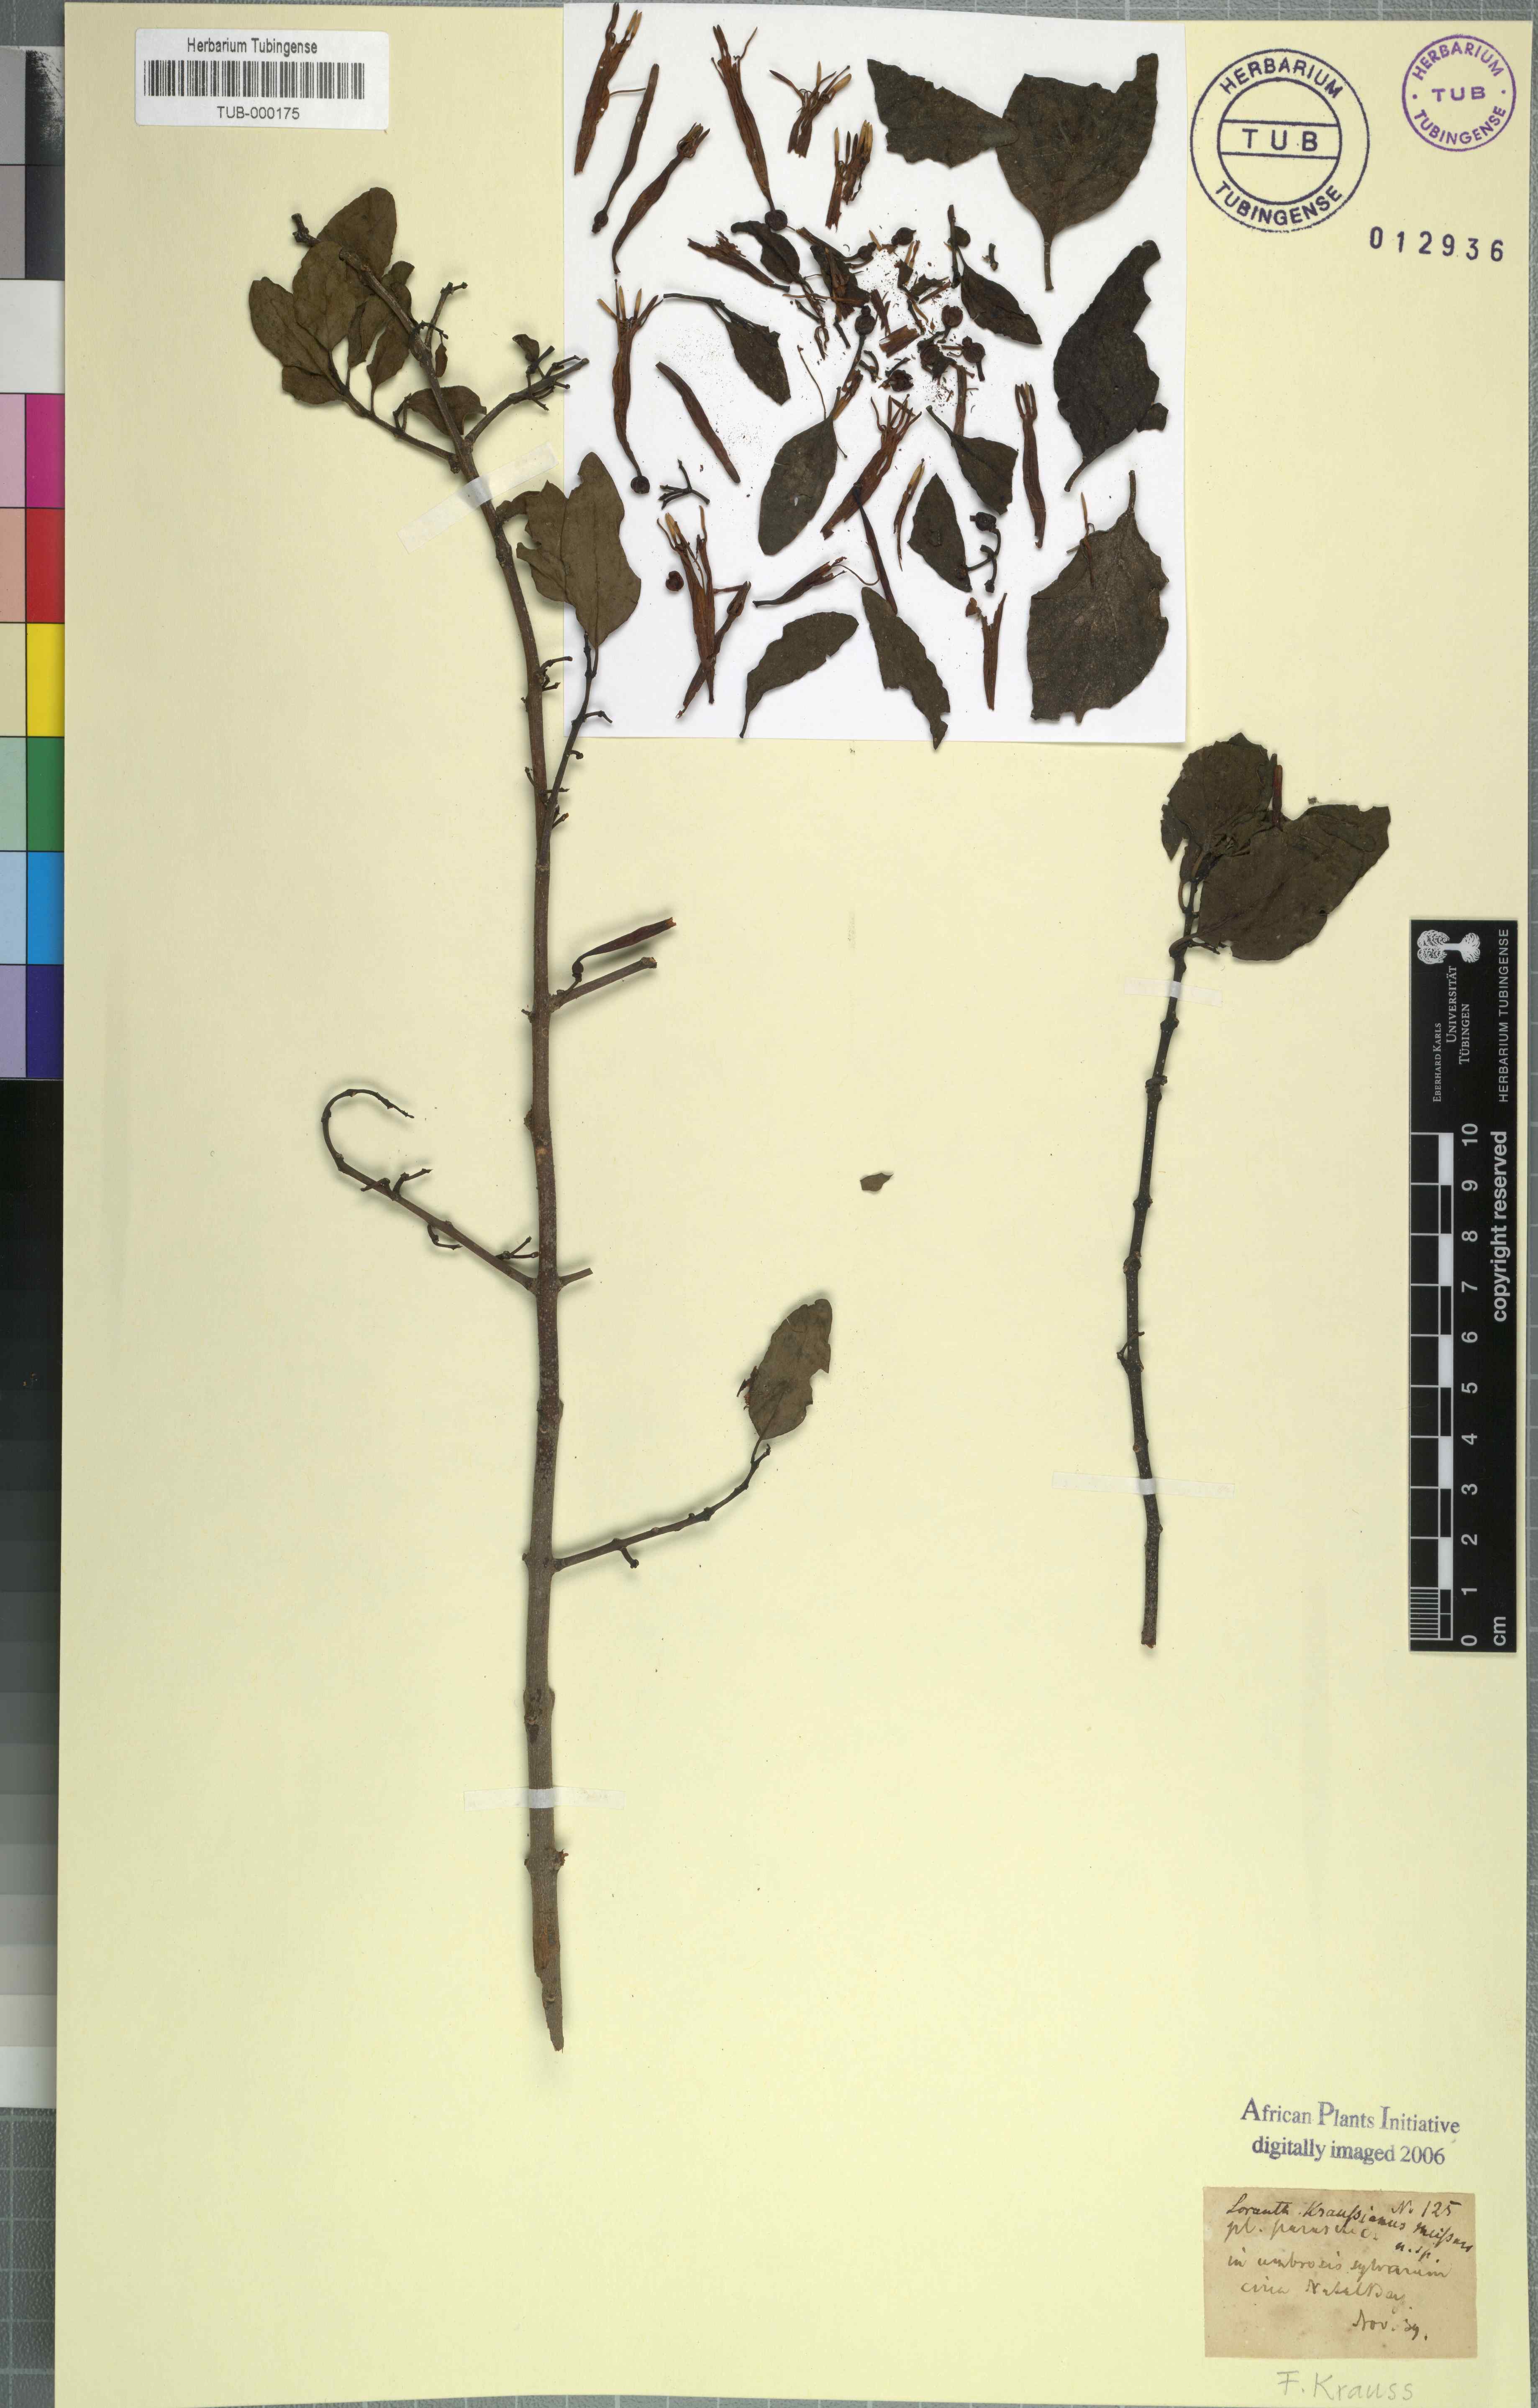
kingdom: Plantae
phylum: Tracheophyta
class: Magnoliopsida
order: Santalales
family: Loranthaceae
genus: Agelanthus
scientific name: Agelanthus kraussianus
